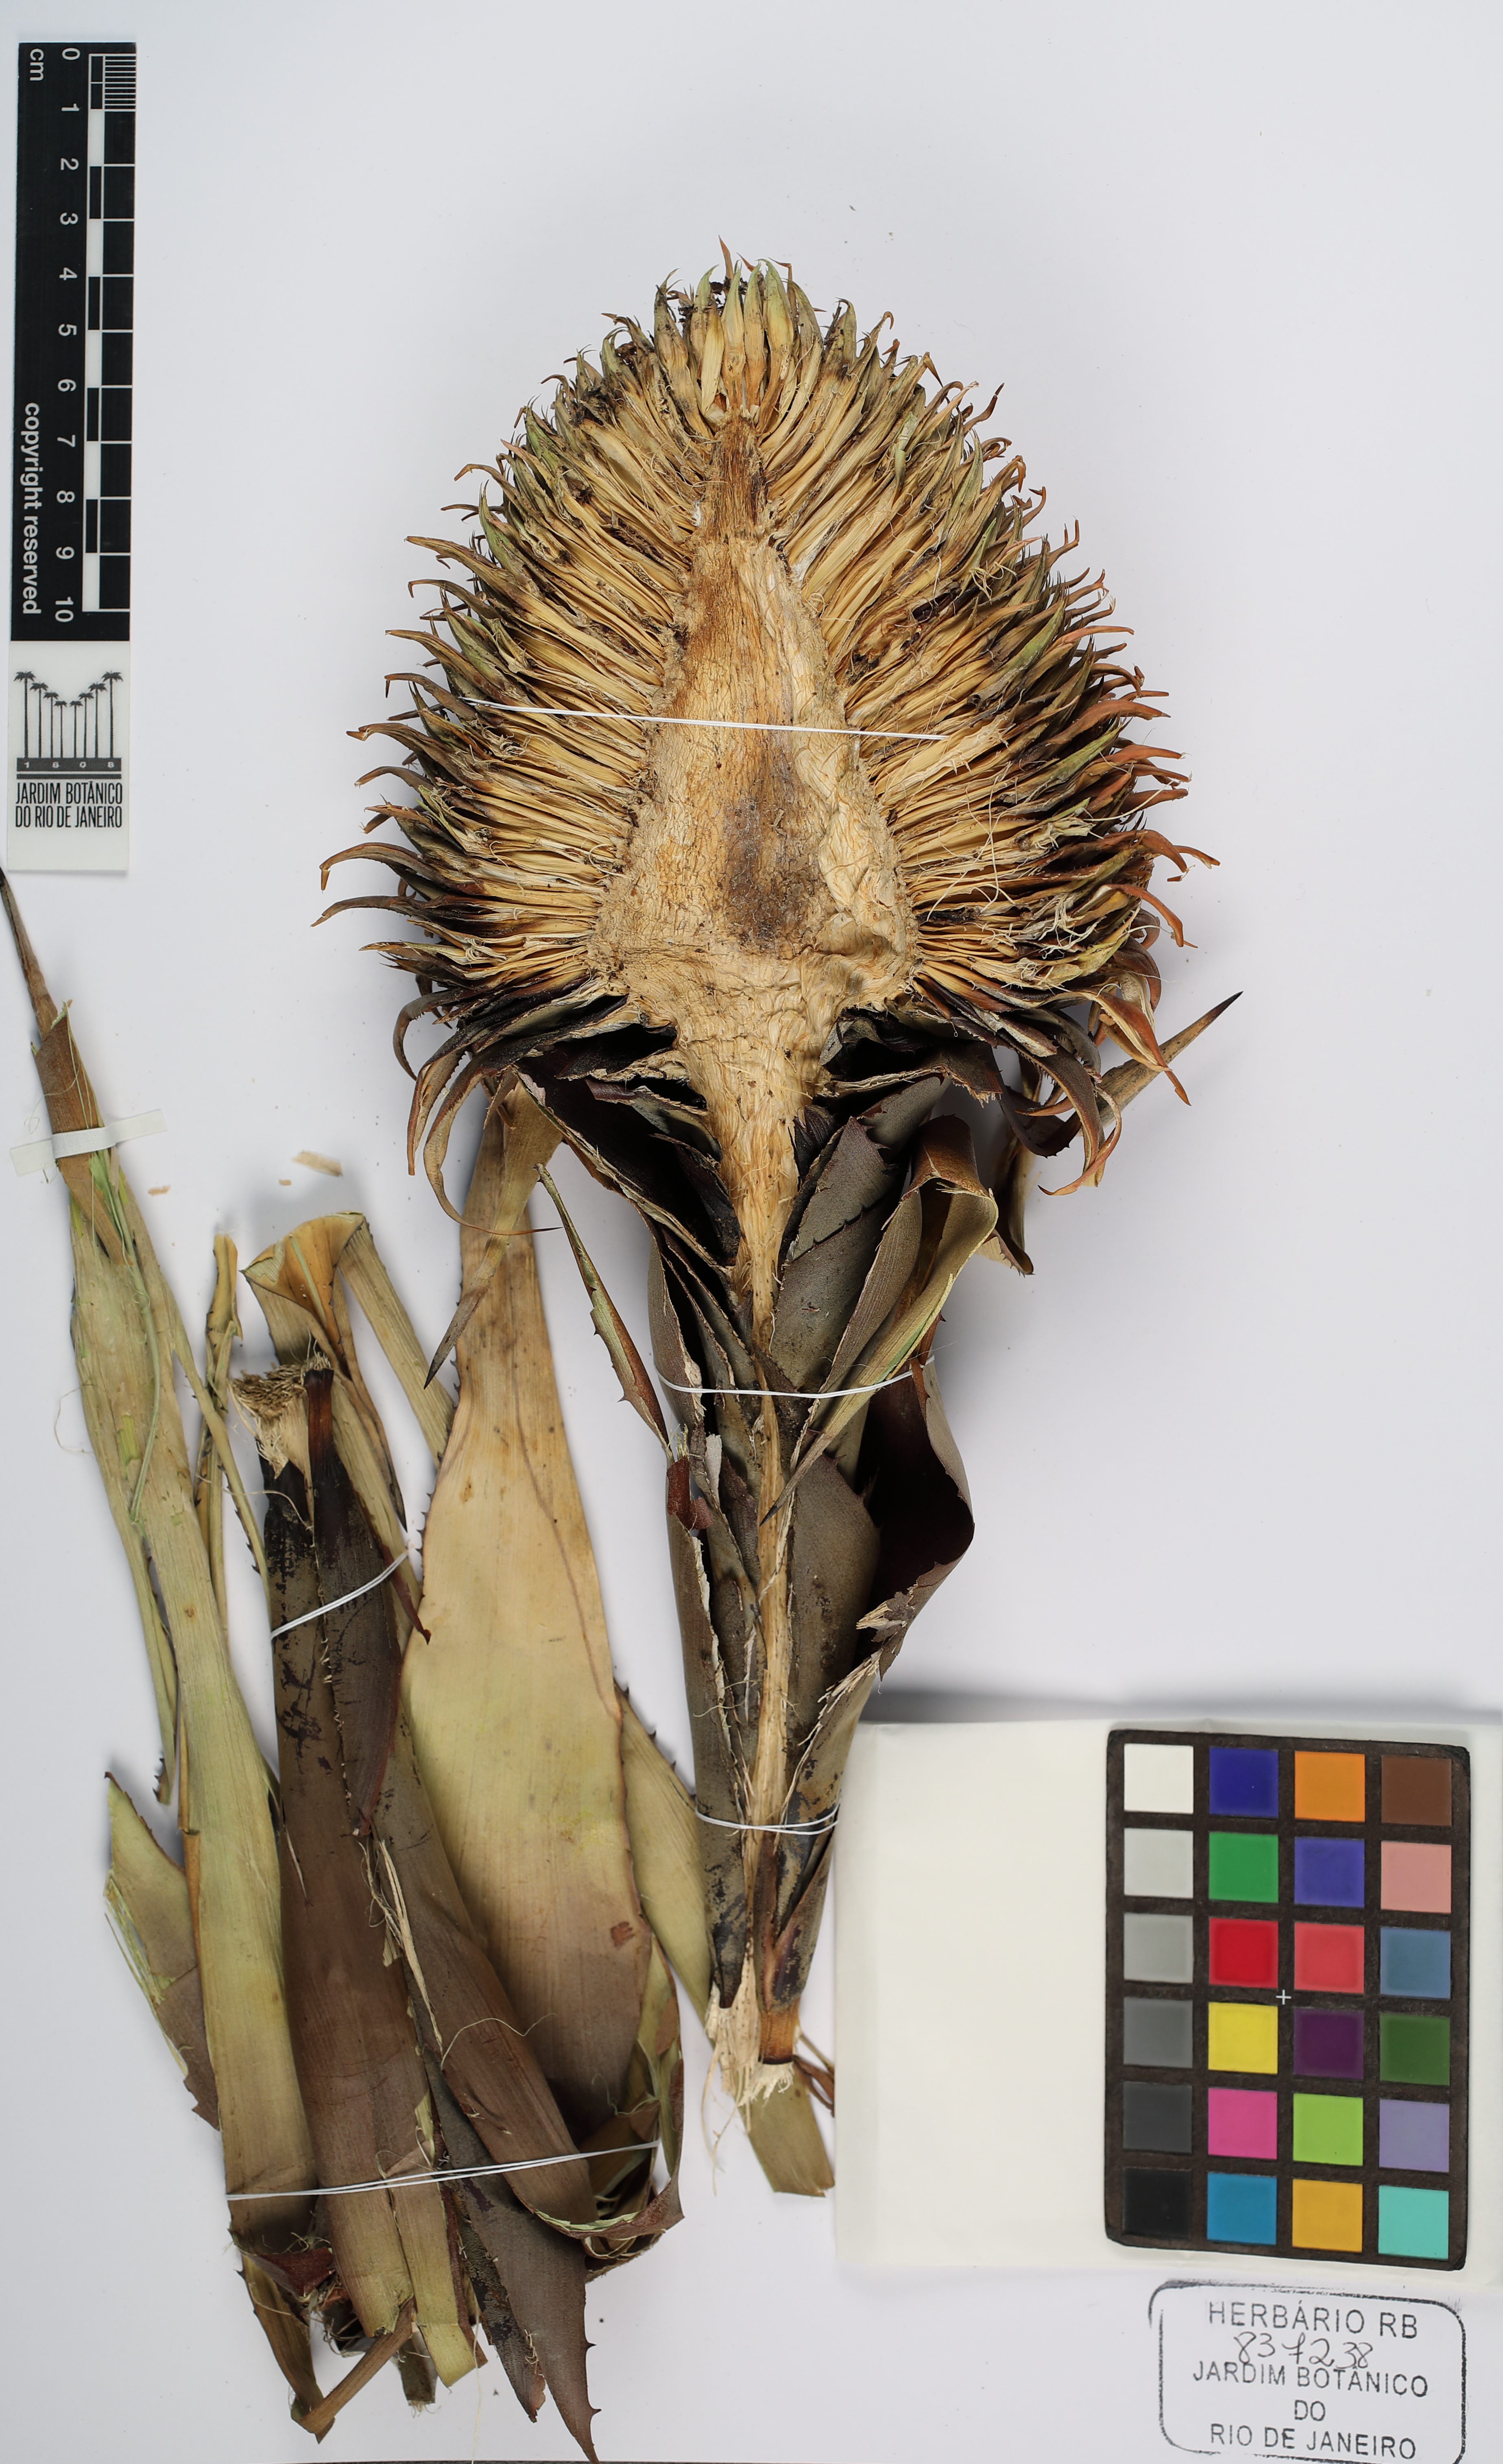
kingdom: Plantae
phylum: Tracheophyta
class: Liliopsida
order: Poales
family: Bromeliaceae
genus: Karawata
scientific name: Karawata saxicola
